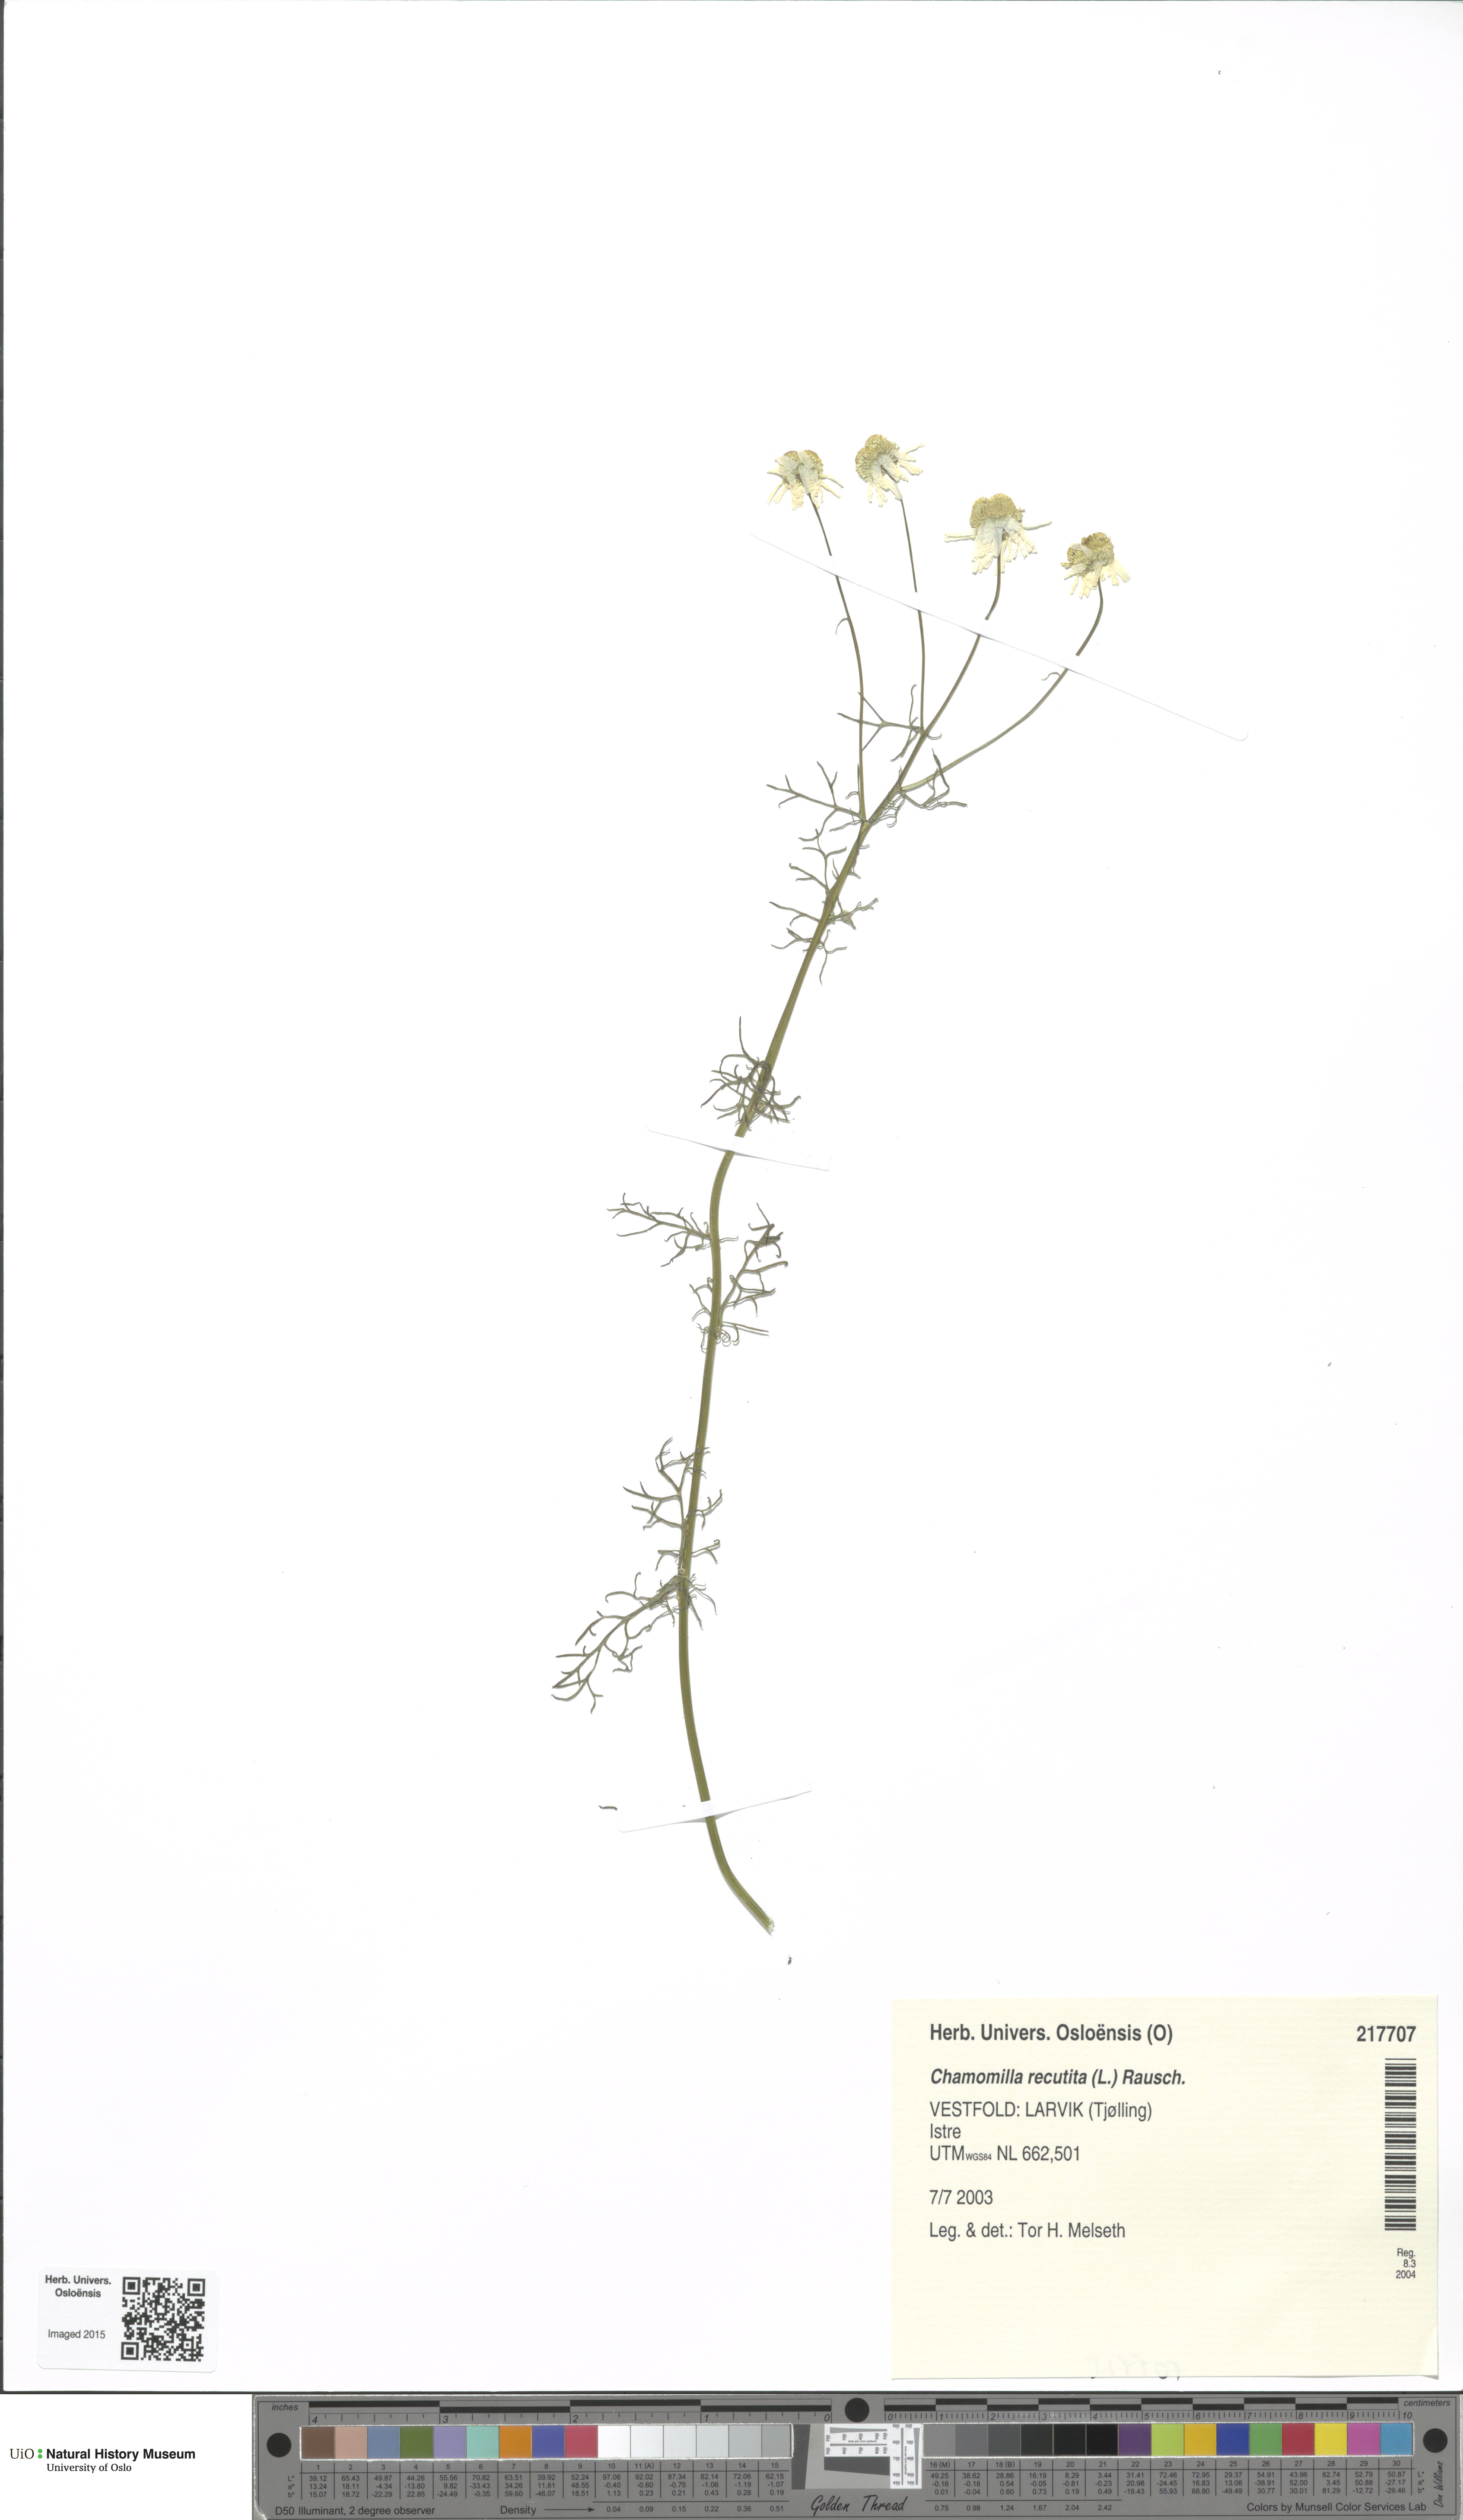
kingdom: Plantae
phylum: Tracheophyta
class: Magnoliopsida
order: Asterales
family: Asteraceae
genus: Matricaria
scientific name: Matricaria chamomilla
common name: Scented mayweed
